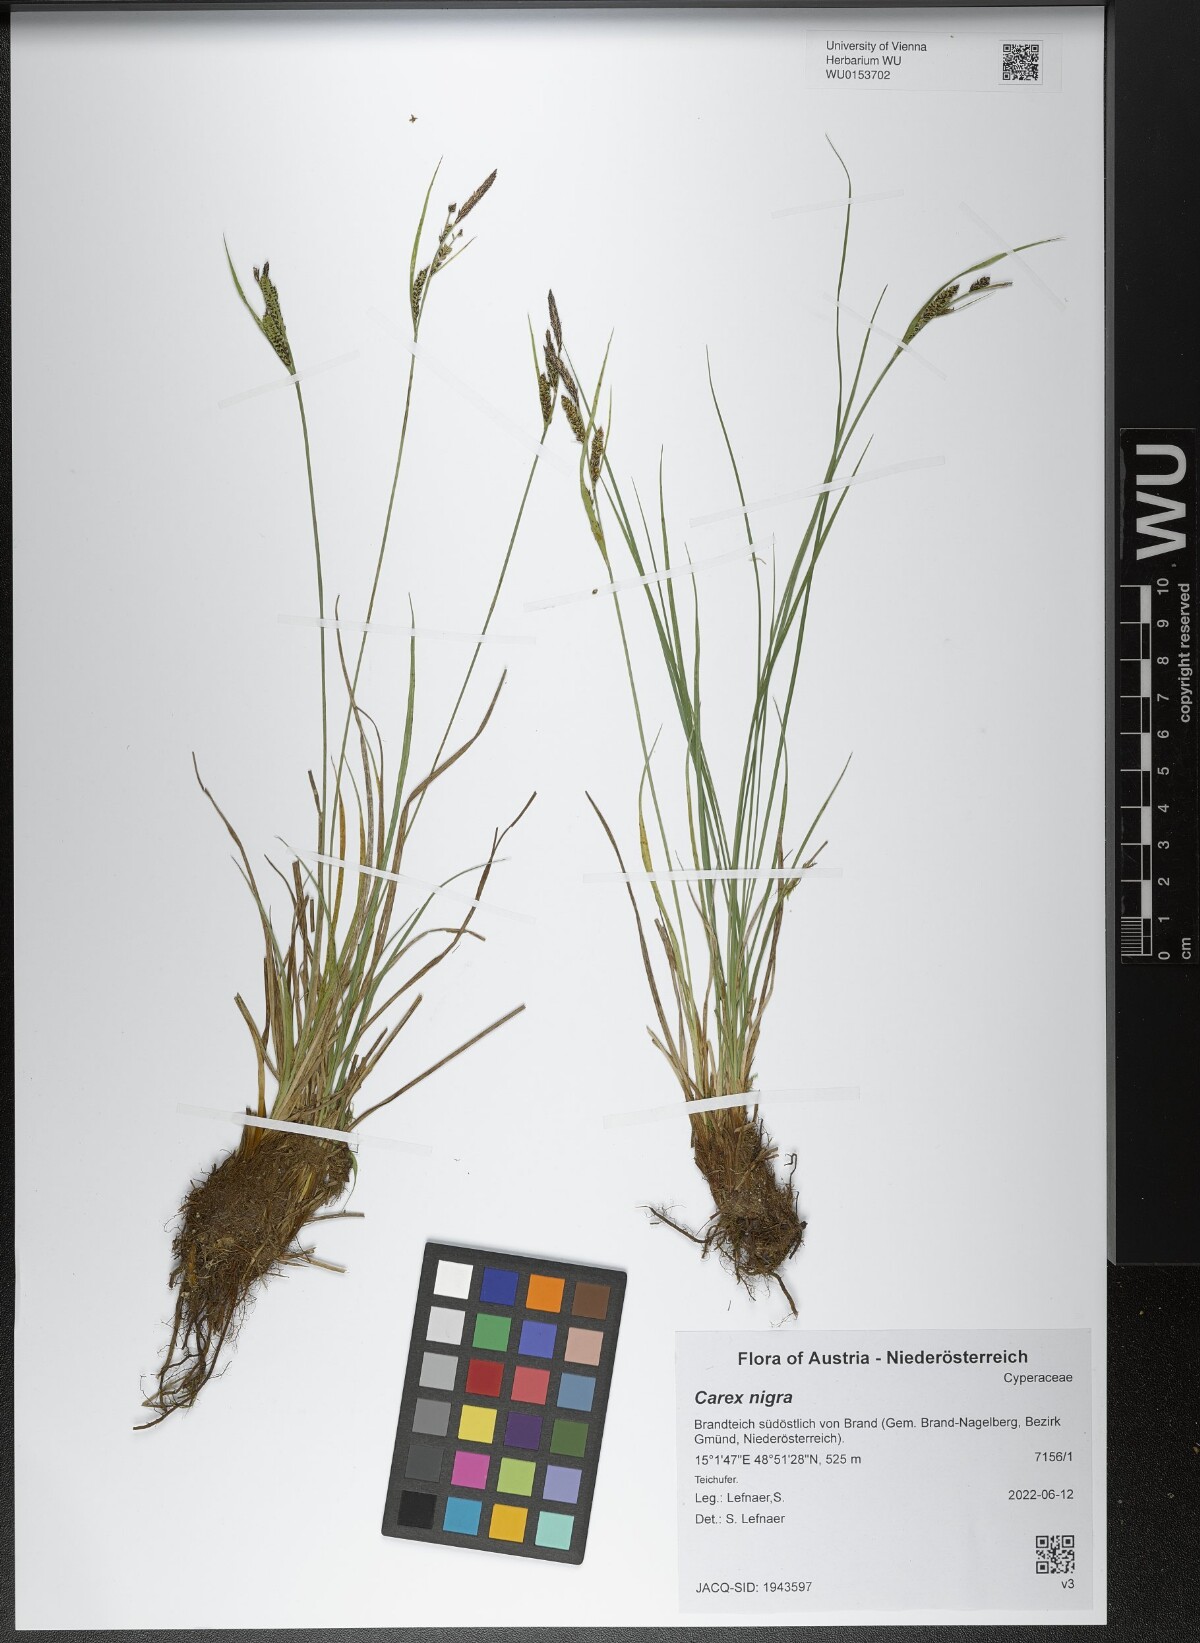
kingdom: Plantae
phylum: Tracheophyta
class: Liliopsida
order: Poales
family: Cyperaceae
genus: Carex
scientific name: Carex nigra
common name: Common sedge
